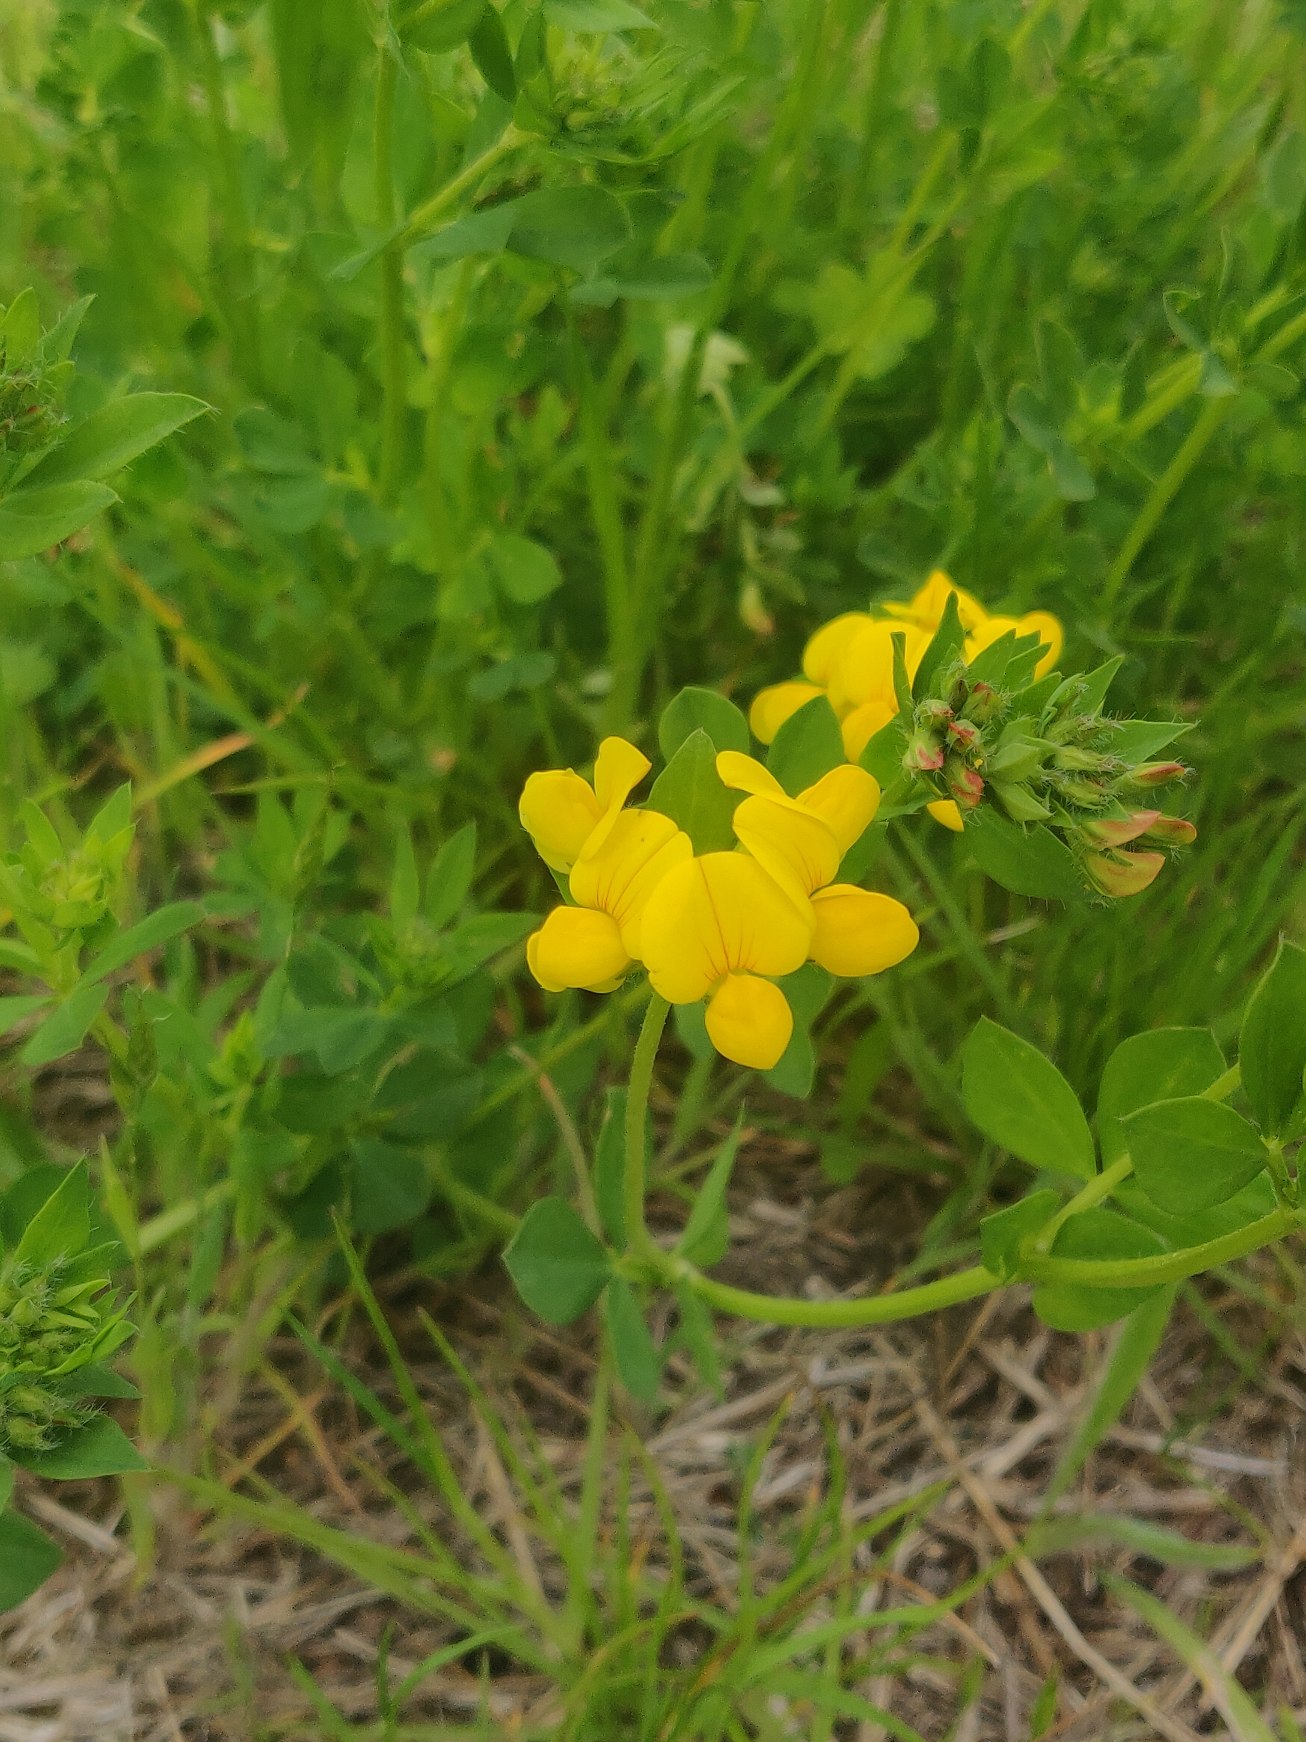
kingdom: Plantae
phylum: Tracheophyta
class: Magnoliopsida
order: Fabales
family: Fabaceae
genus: Lotus
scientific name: Lotus corniculatus
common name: Almindelig kællingetand
